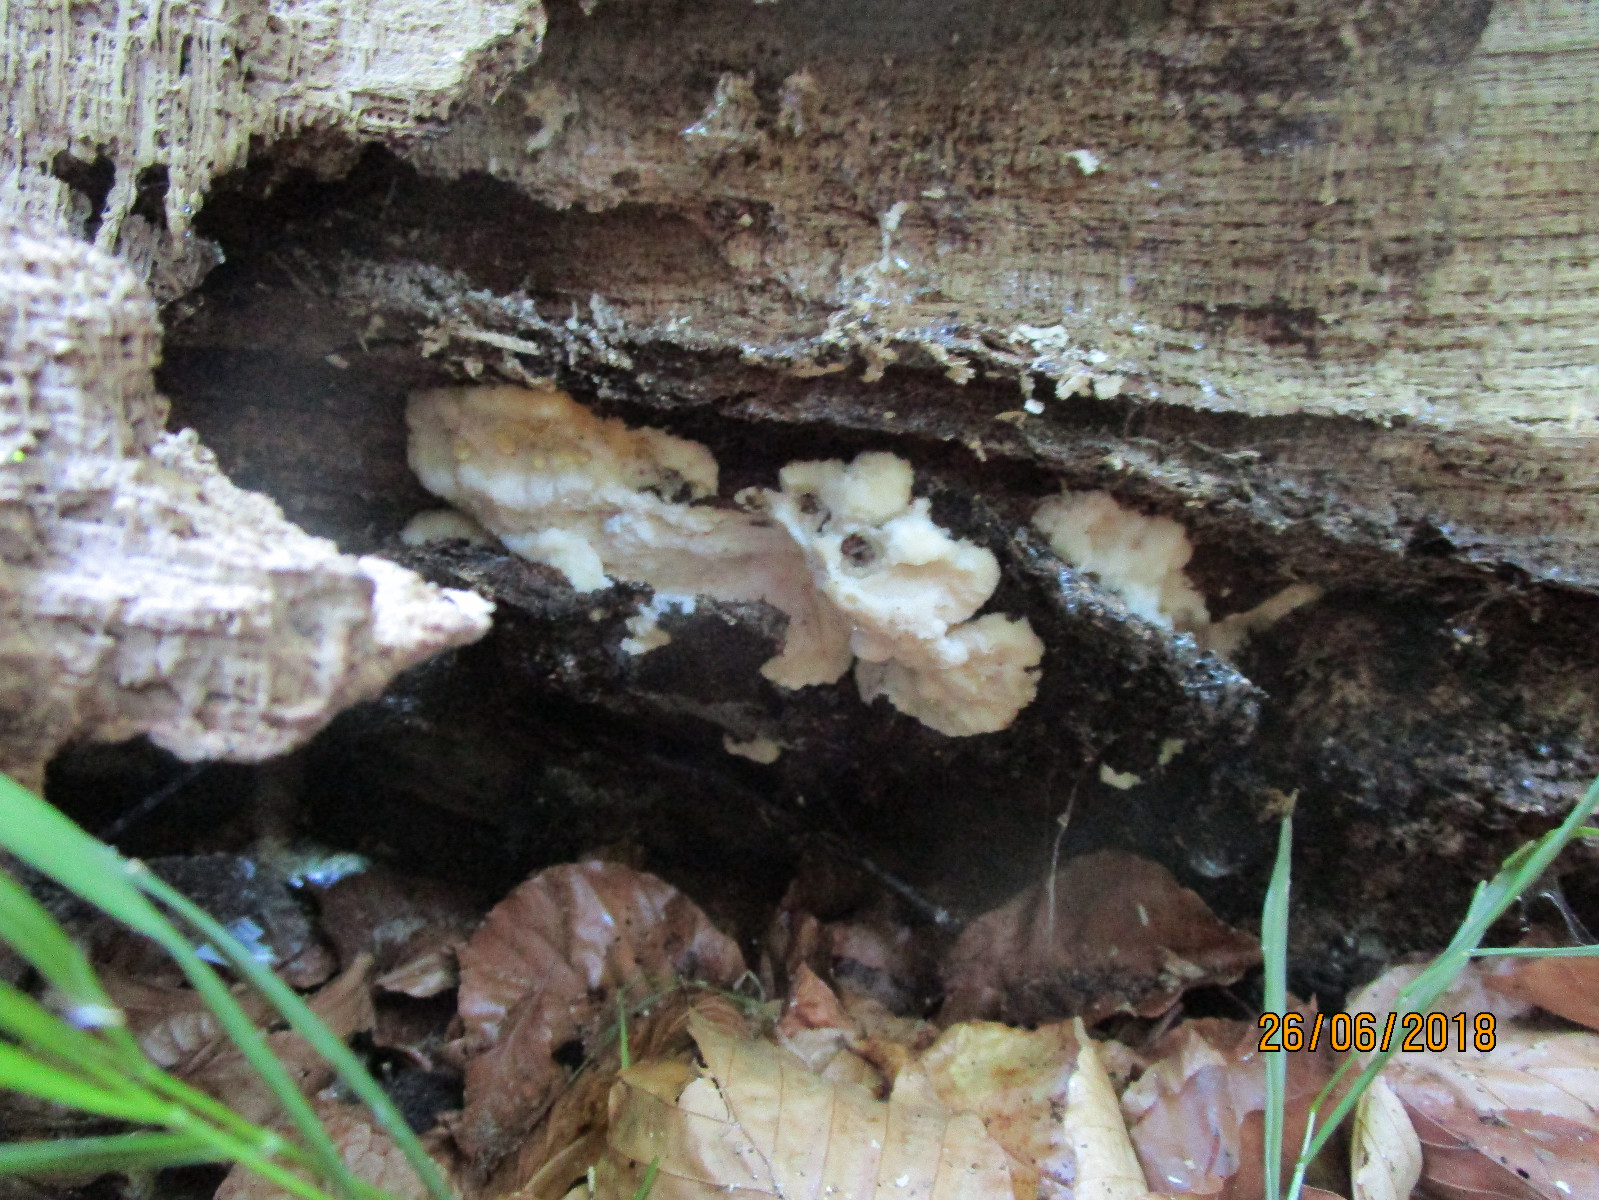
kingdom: Fungi
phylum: Basidiomycota
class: Agaricomycetes
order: Polyporales
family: Meruliaceae
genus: Pappia
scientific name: Pappia fissilis
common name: sej fedtporesvamp
